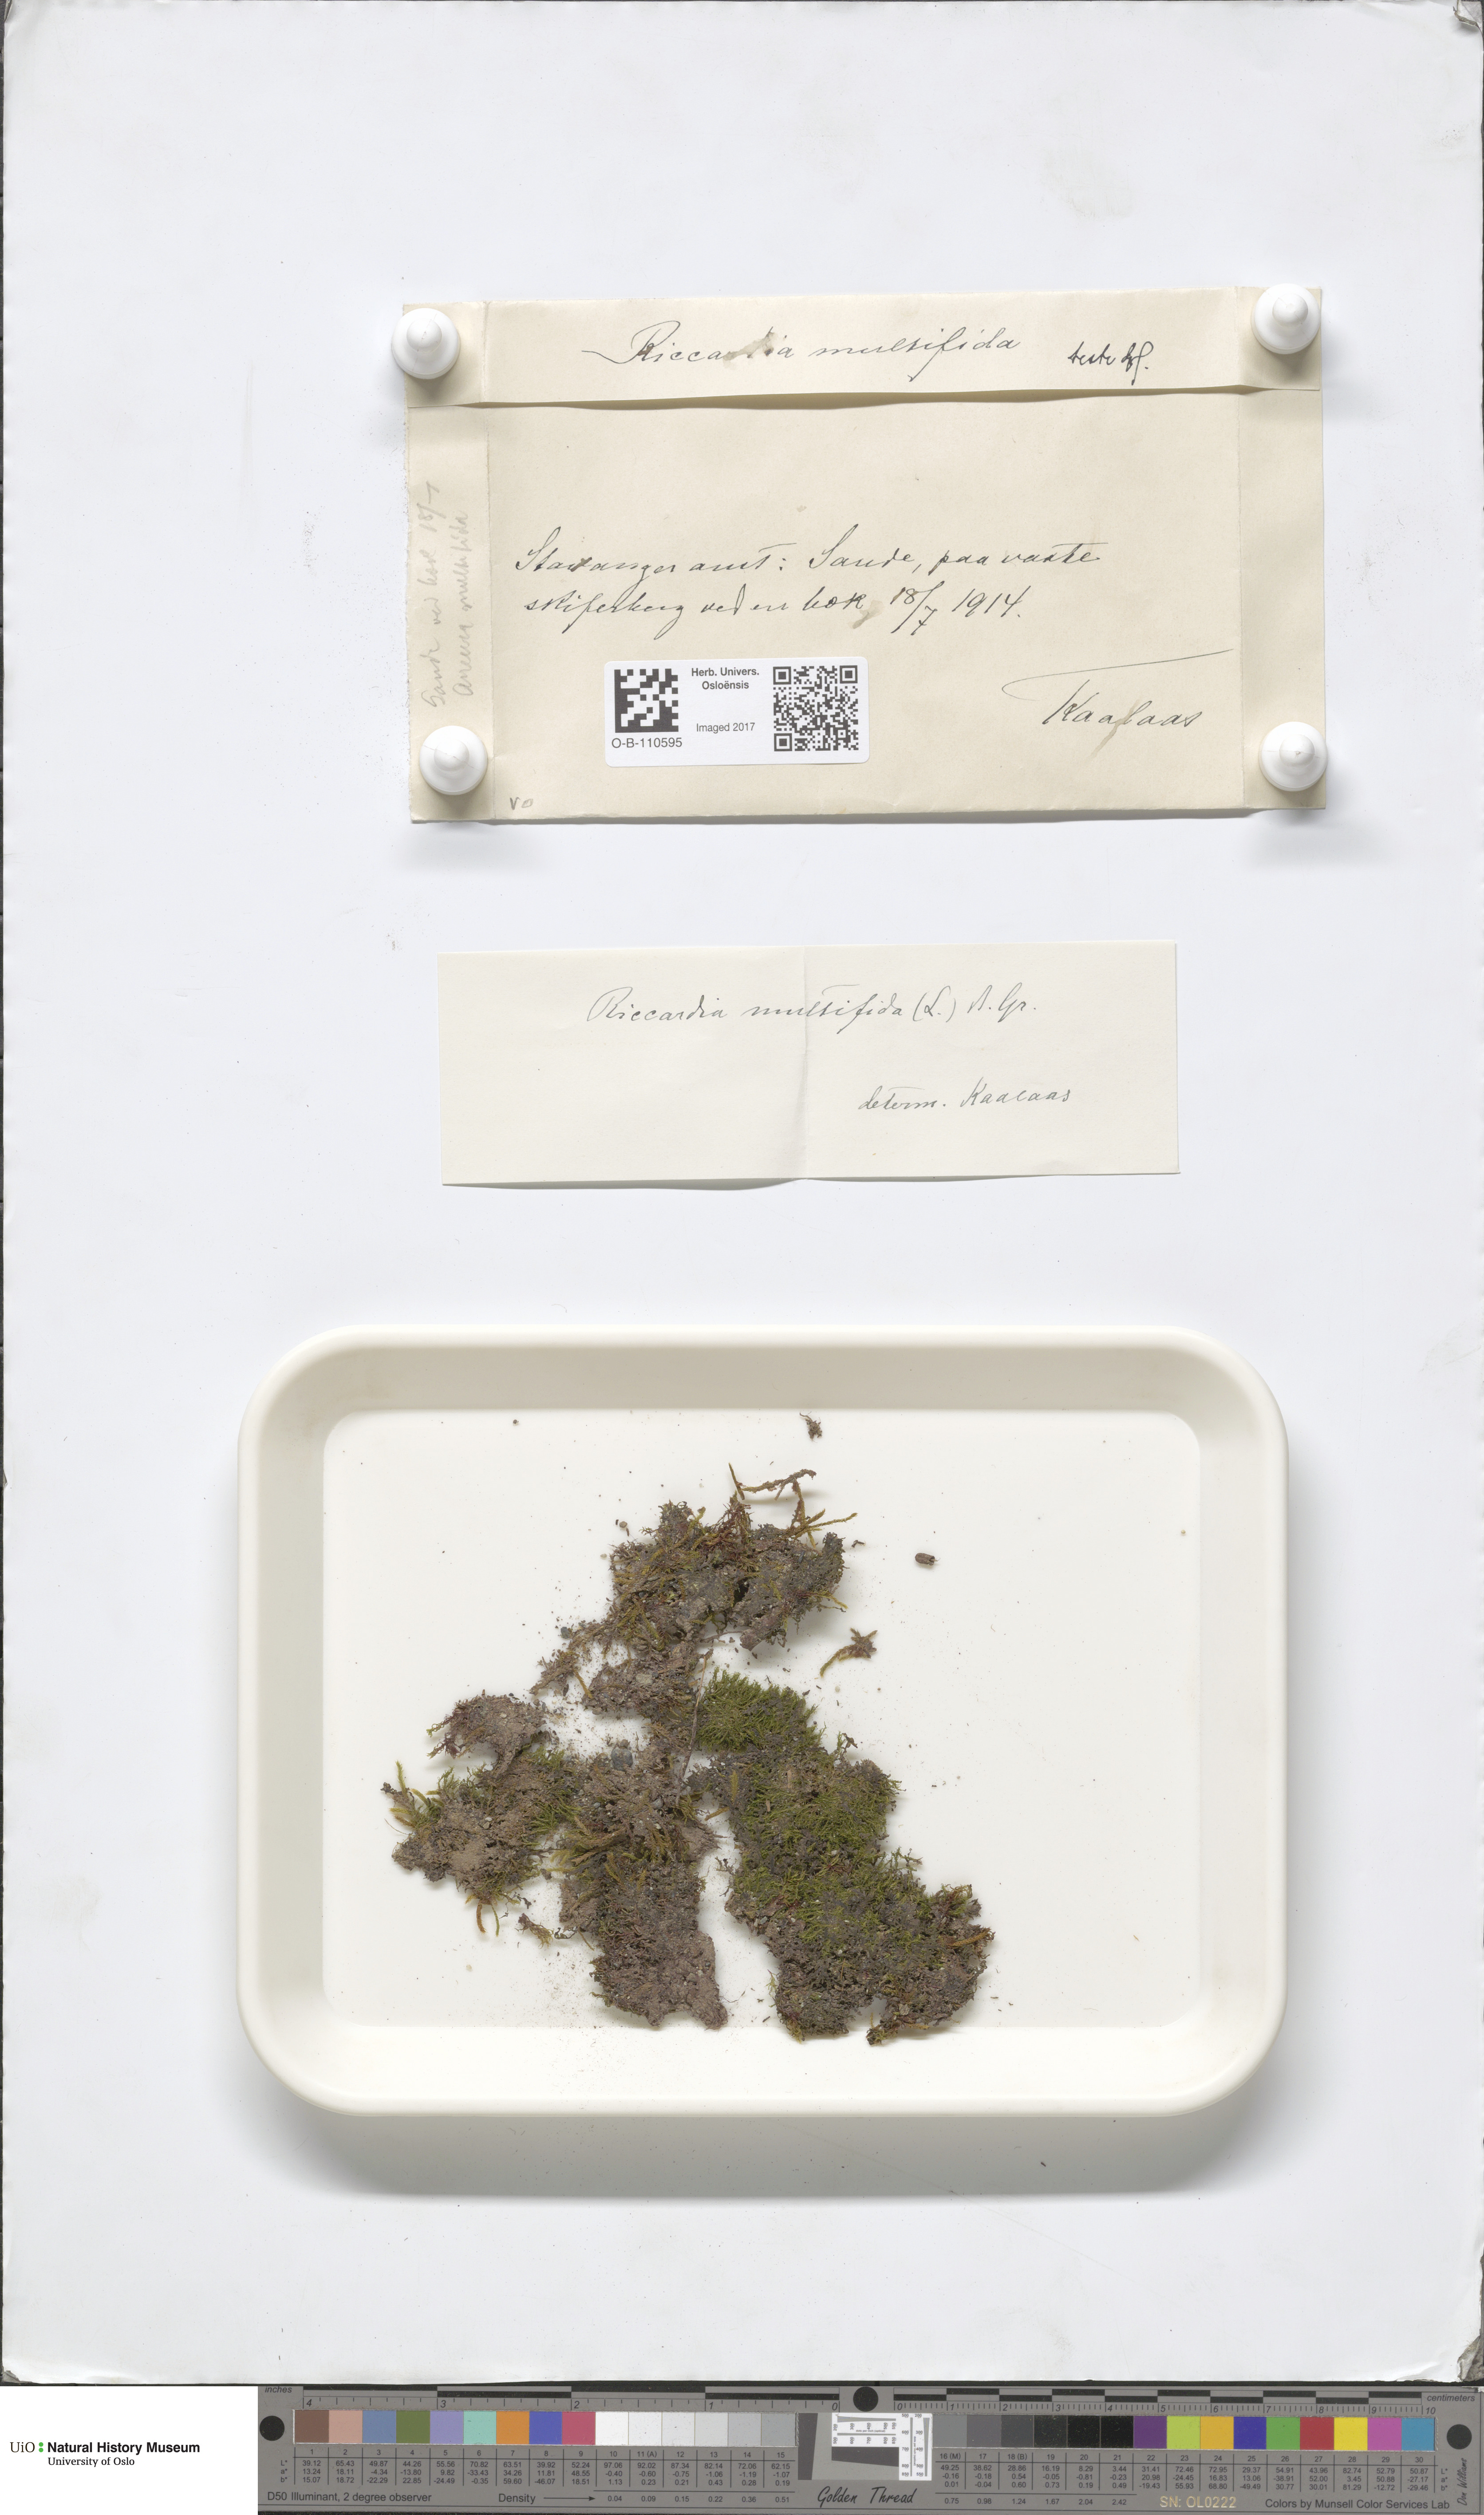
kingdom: Plantae
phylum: Marchantiophyta
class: Jungermanniopsida
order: Metzgeriales
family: Aneuraceae
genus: Riccardia
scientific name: Riccardia multifida
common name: Delicate germanderwort
